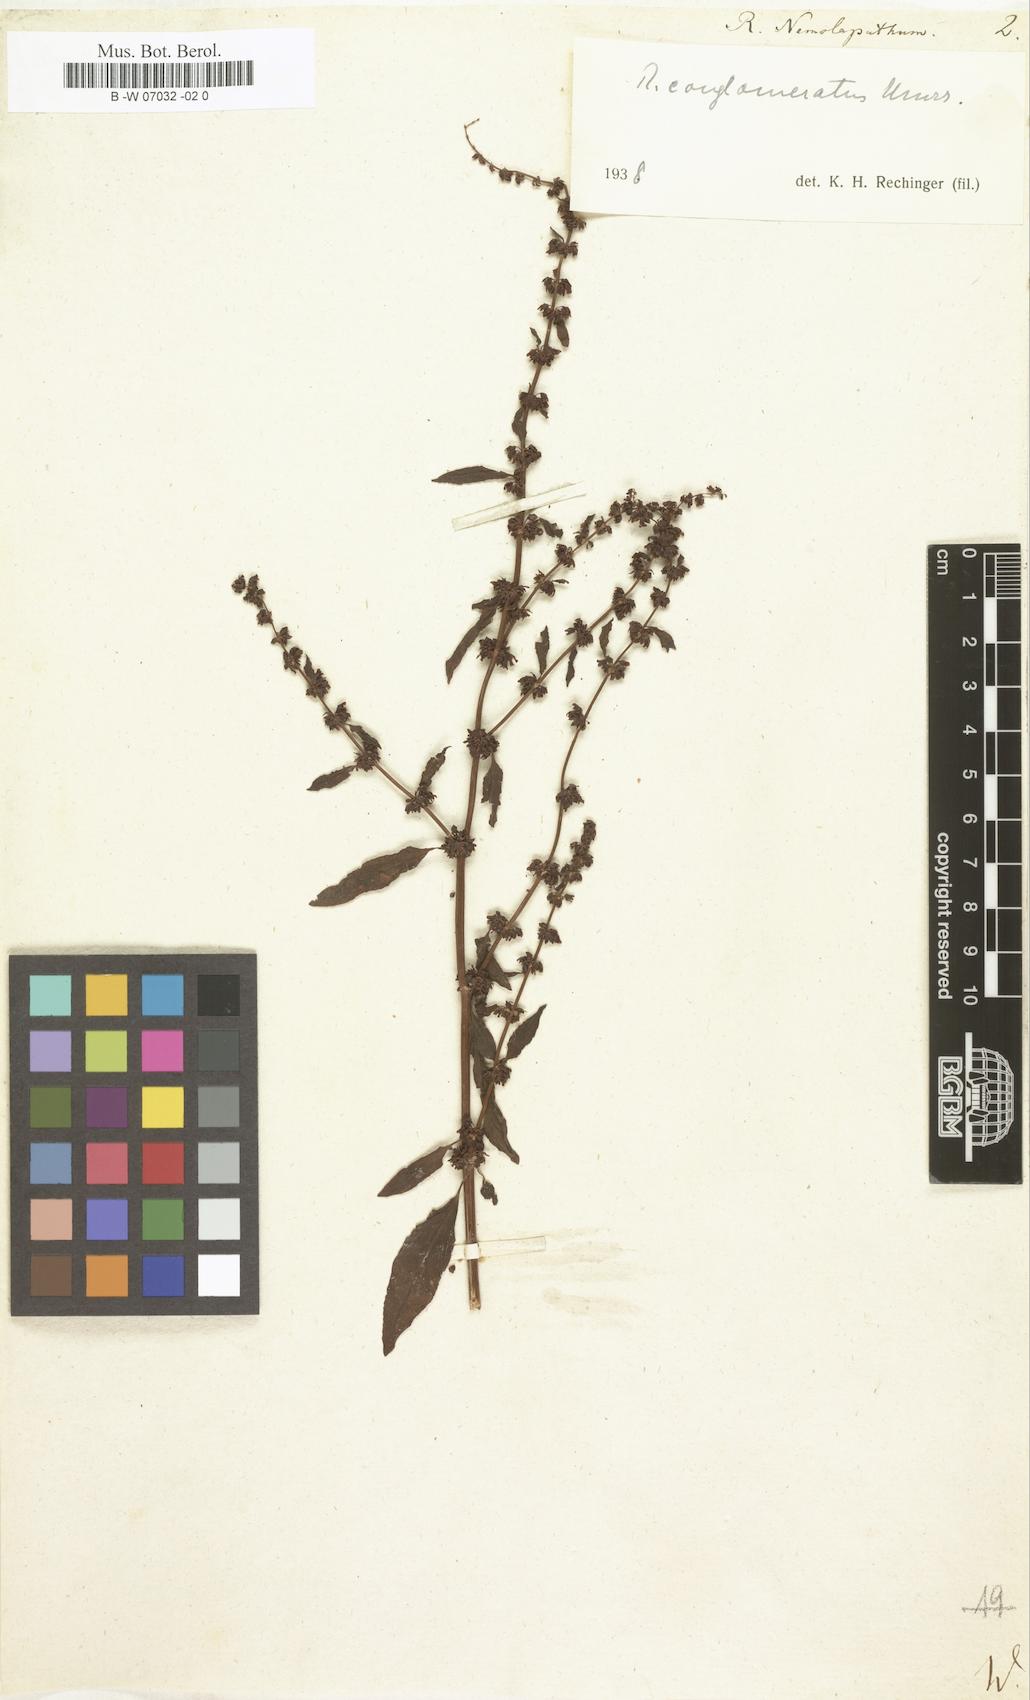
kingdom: Plantae
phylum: Tracheophyta
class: Magnoliopsida
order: Caryophyllales
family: Polygonaceae
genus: Rumex
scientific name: Rumex
